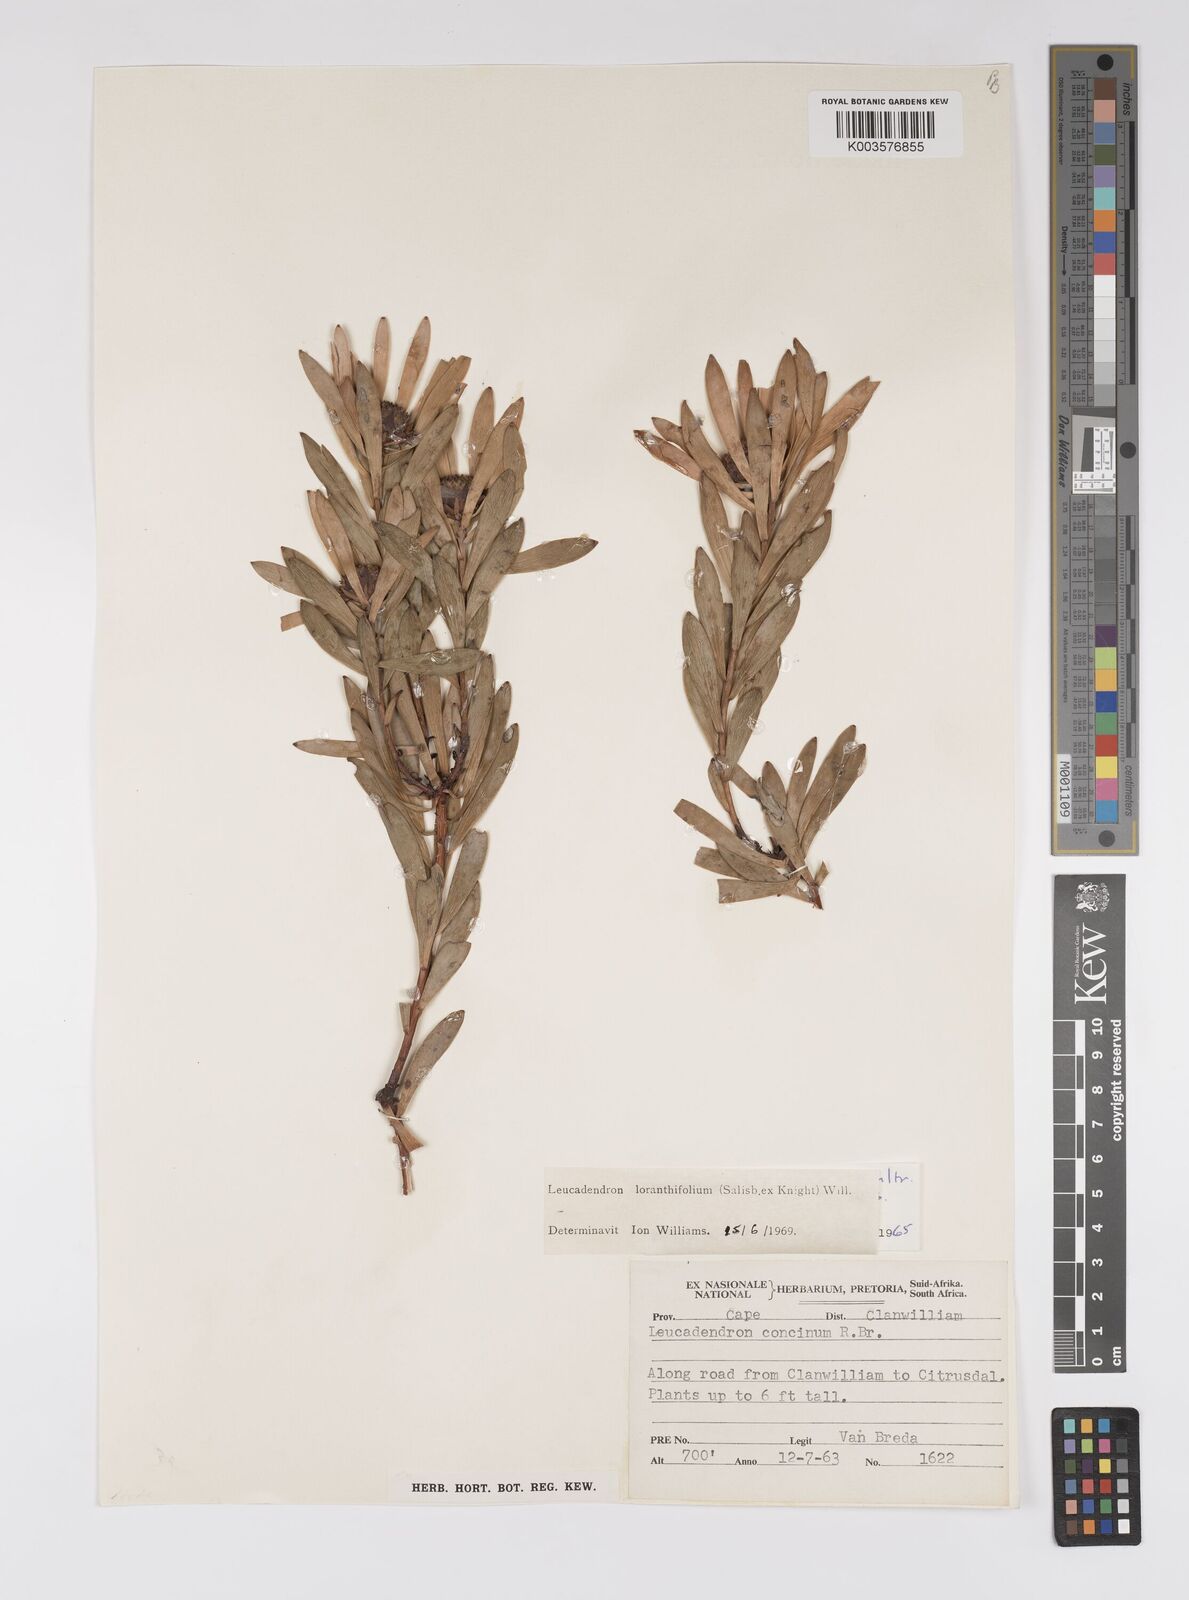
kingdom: Plantae
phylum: Tracheophyta
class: Magnoliopsida
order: Proteales
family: Proteaceae
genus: Leucadendron
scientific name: Leucadendron loranthifolium
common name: Green-flower sunbush
